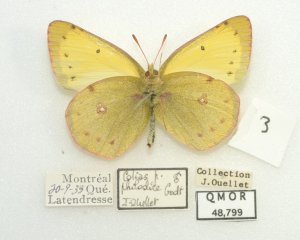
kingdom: Animalia
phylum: Arthropoda
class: Insecta
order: Lepidoptera
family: Pieridae
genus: Colias
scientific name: Colias philodice
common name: Clouded Sulphur
